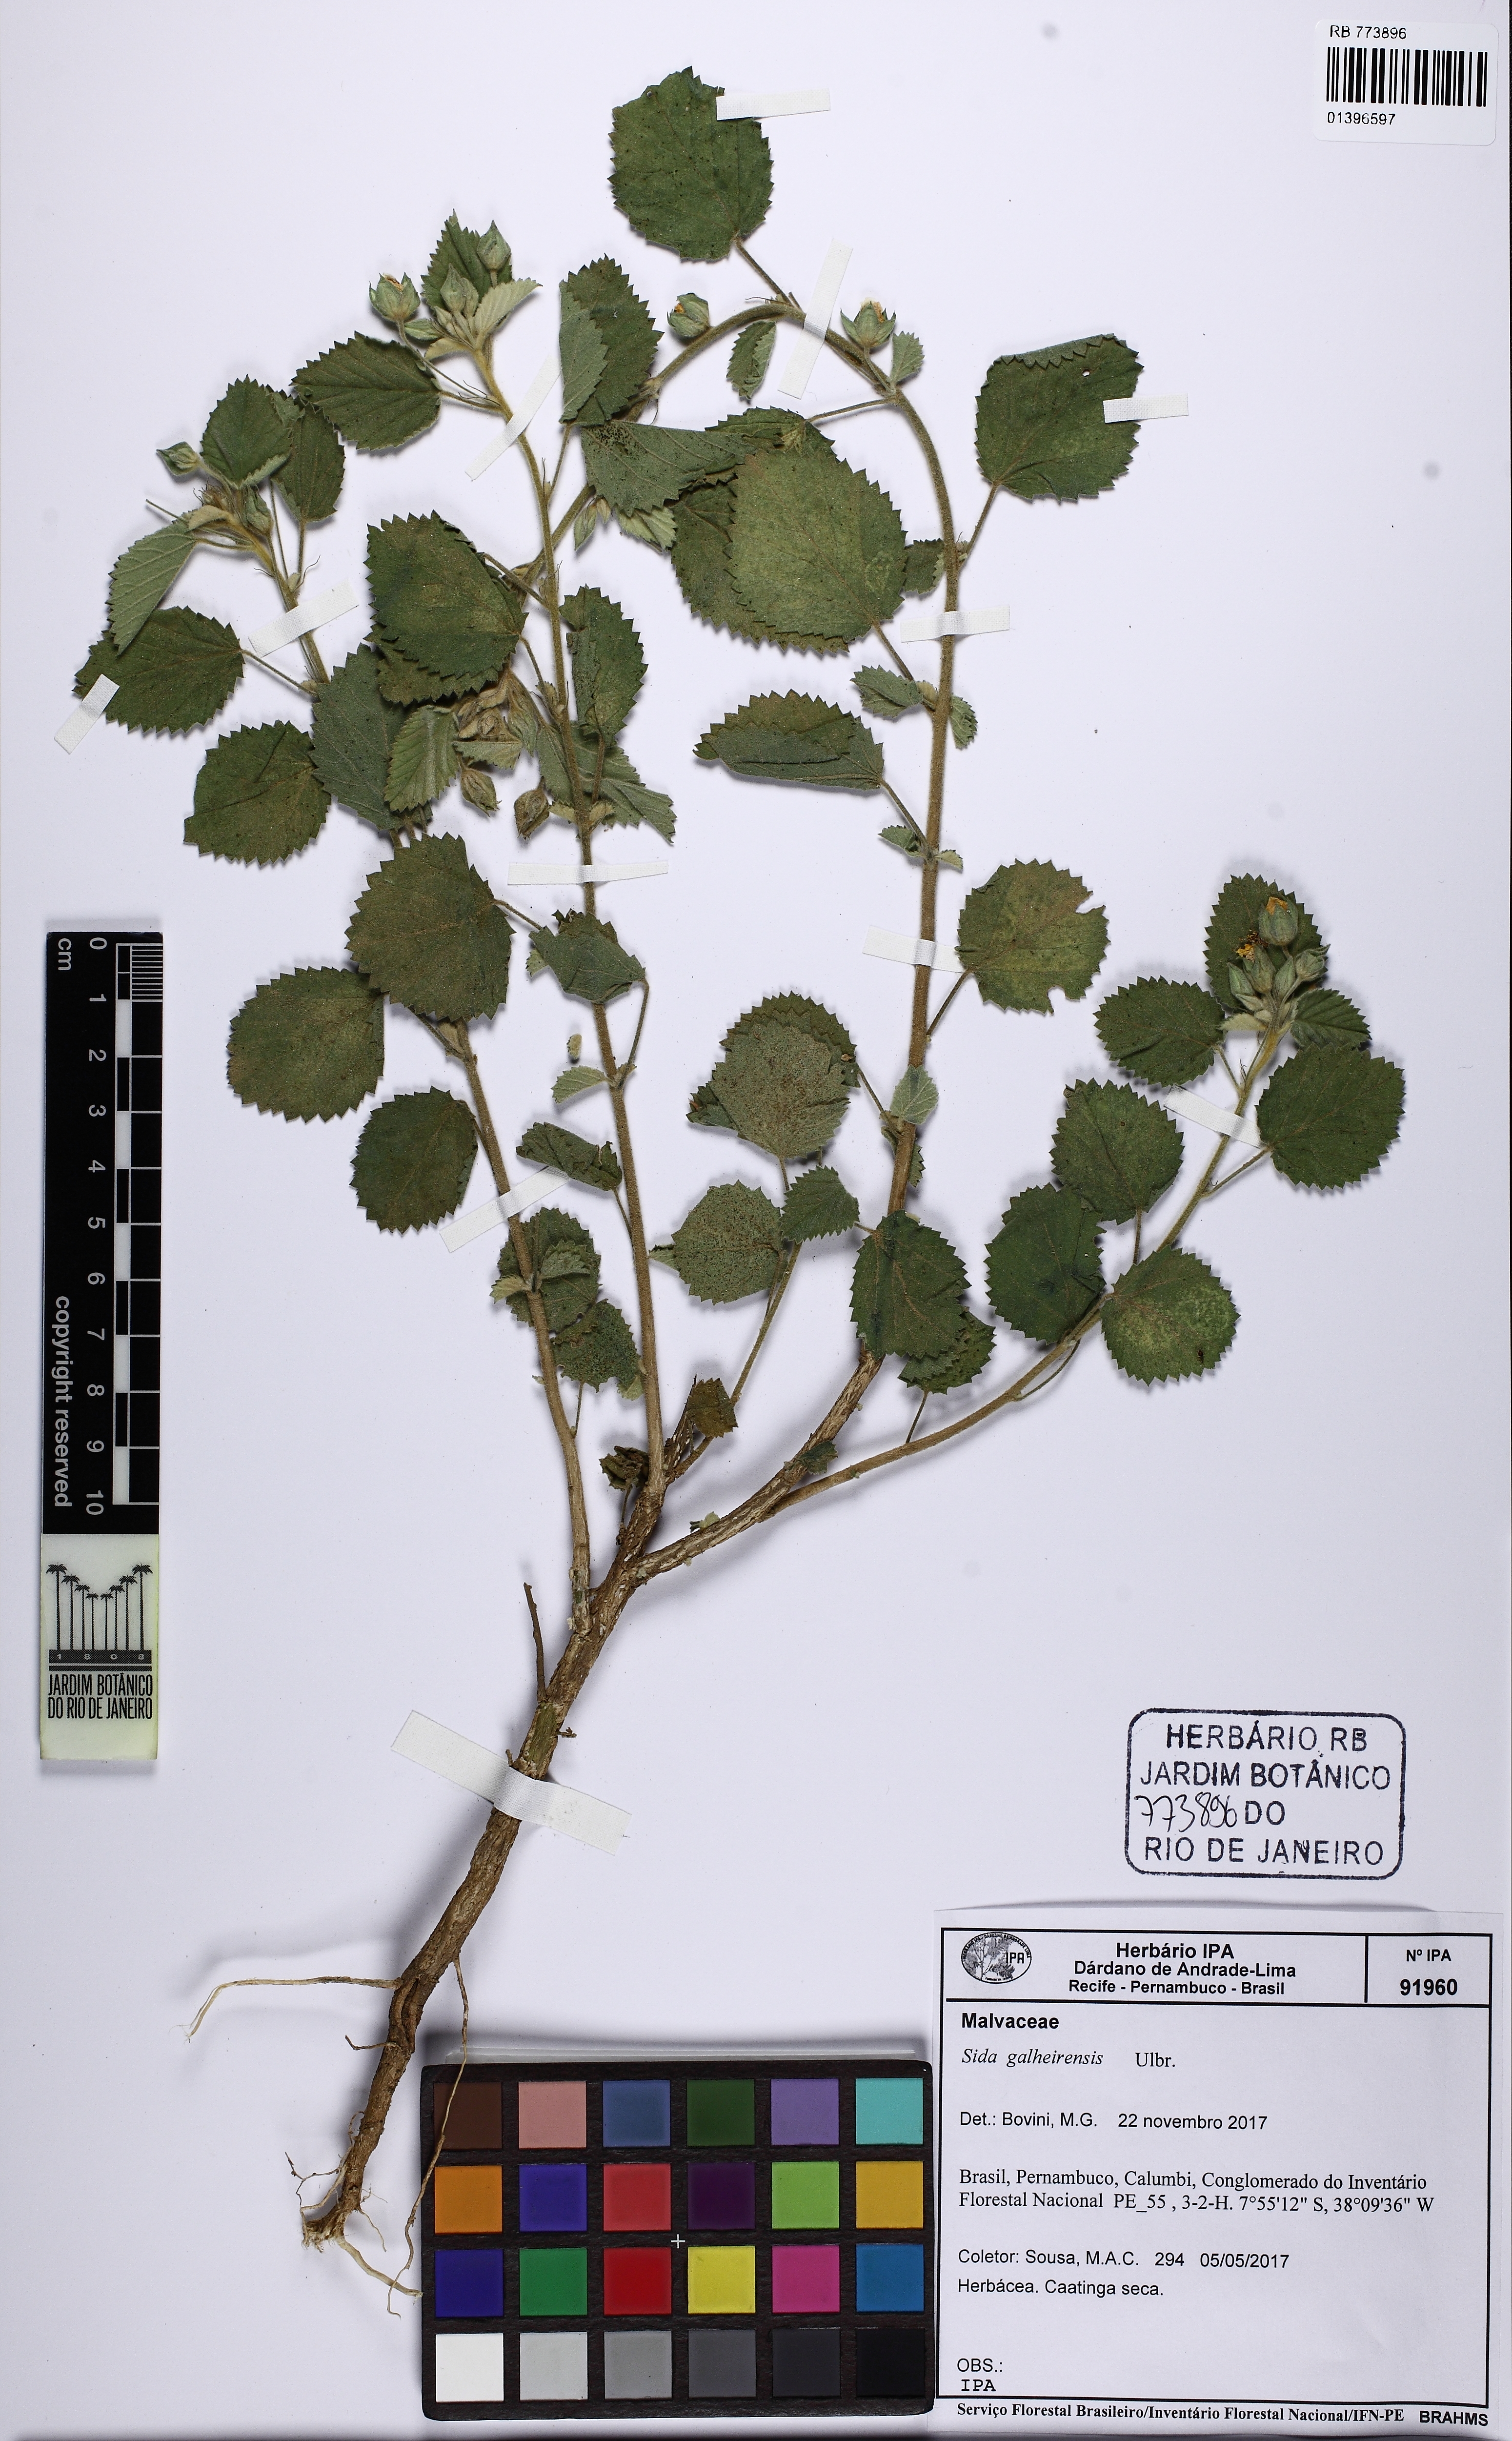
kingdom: Plantae
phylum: Tracheophyta
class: Magnoliopsida
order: Malvales
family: Malvaceae
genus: Sida
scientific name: Sida galheirensis
